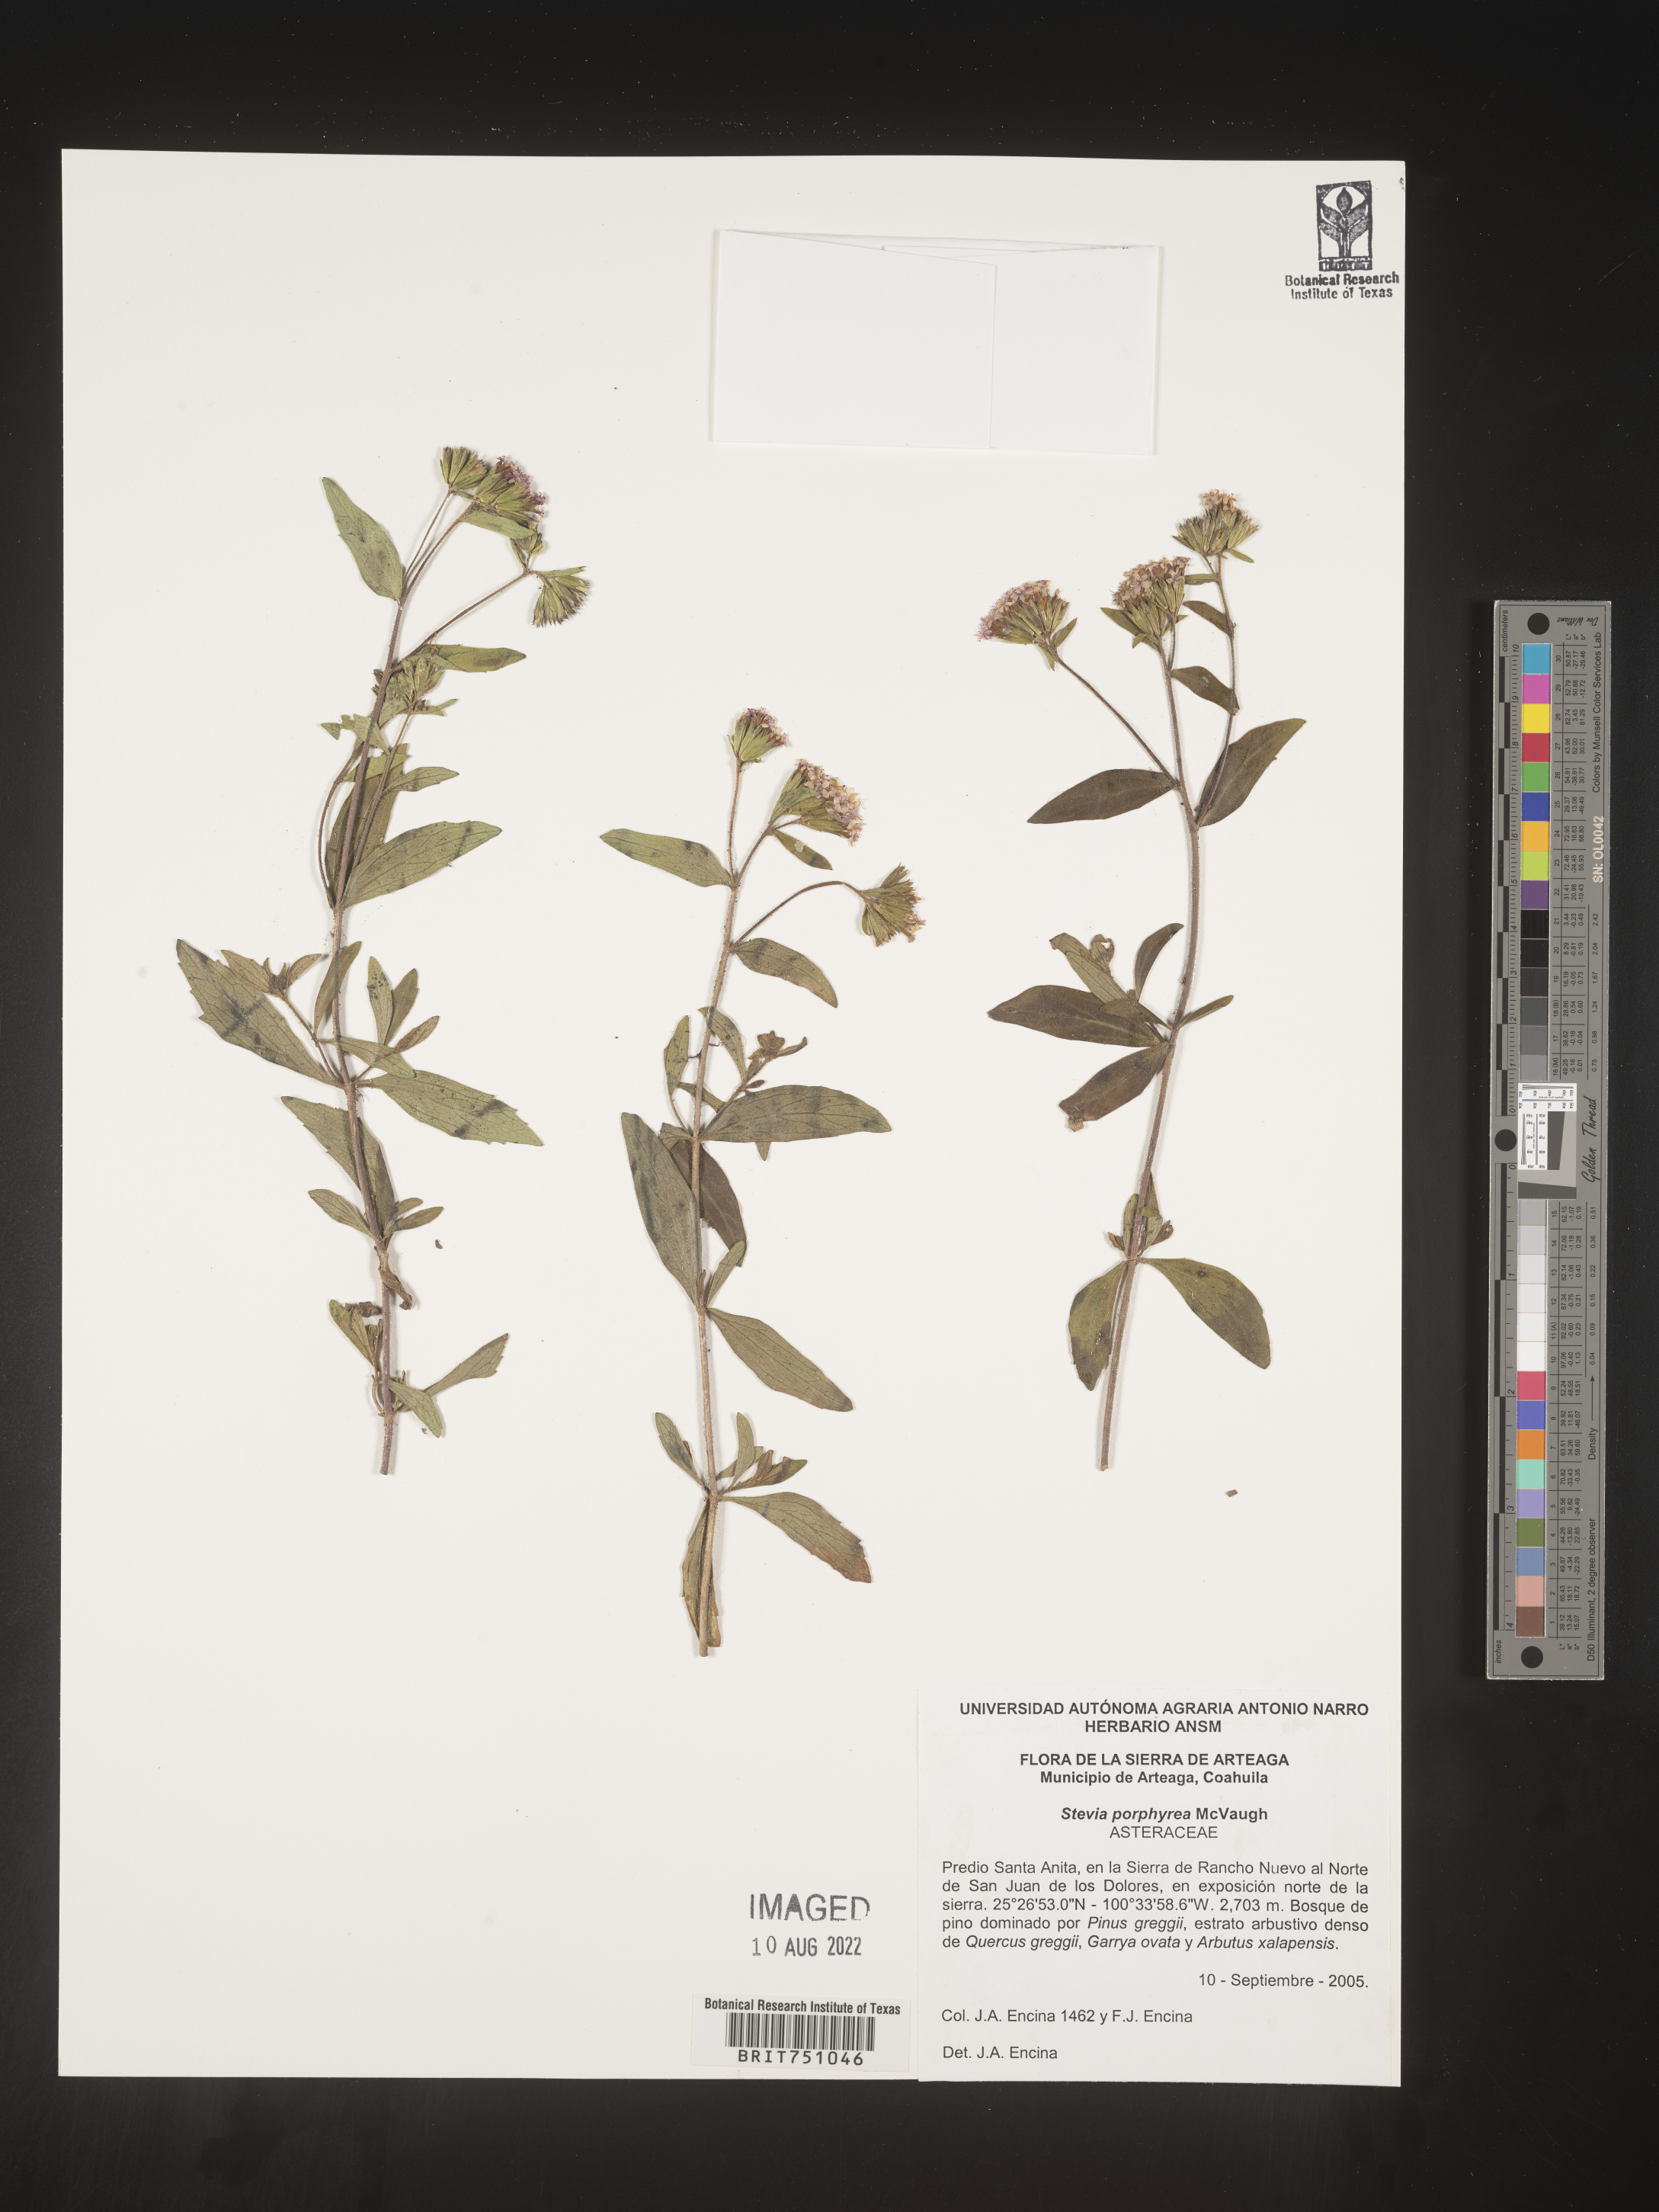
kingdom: Plantae
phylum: Tracheophyta
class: Magnoliopsida
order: Asterales
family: Asteraceae
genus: Stevia
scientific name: Stevia porphyrea
